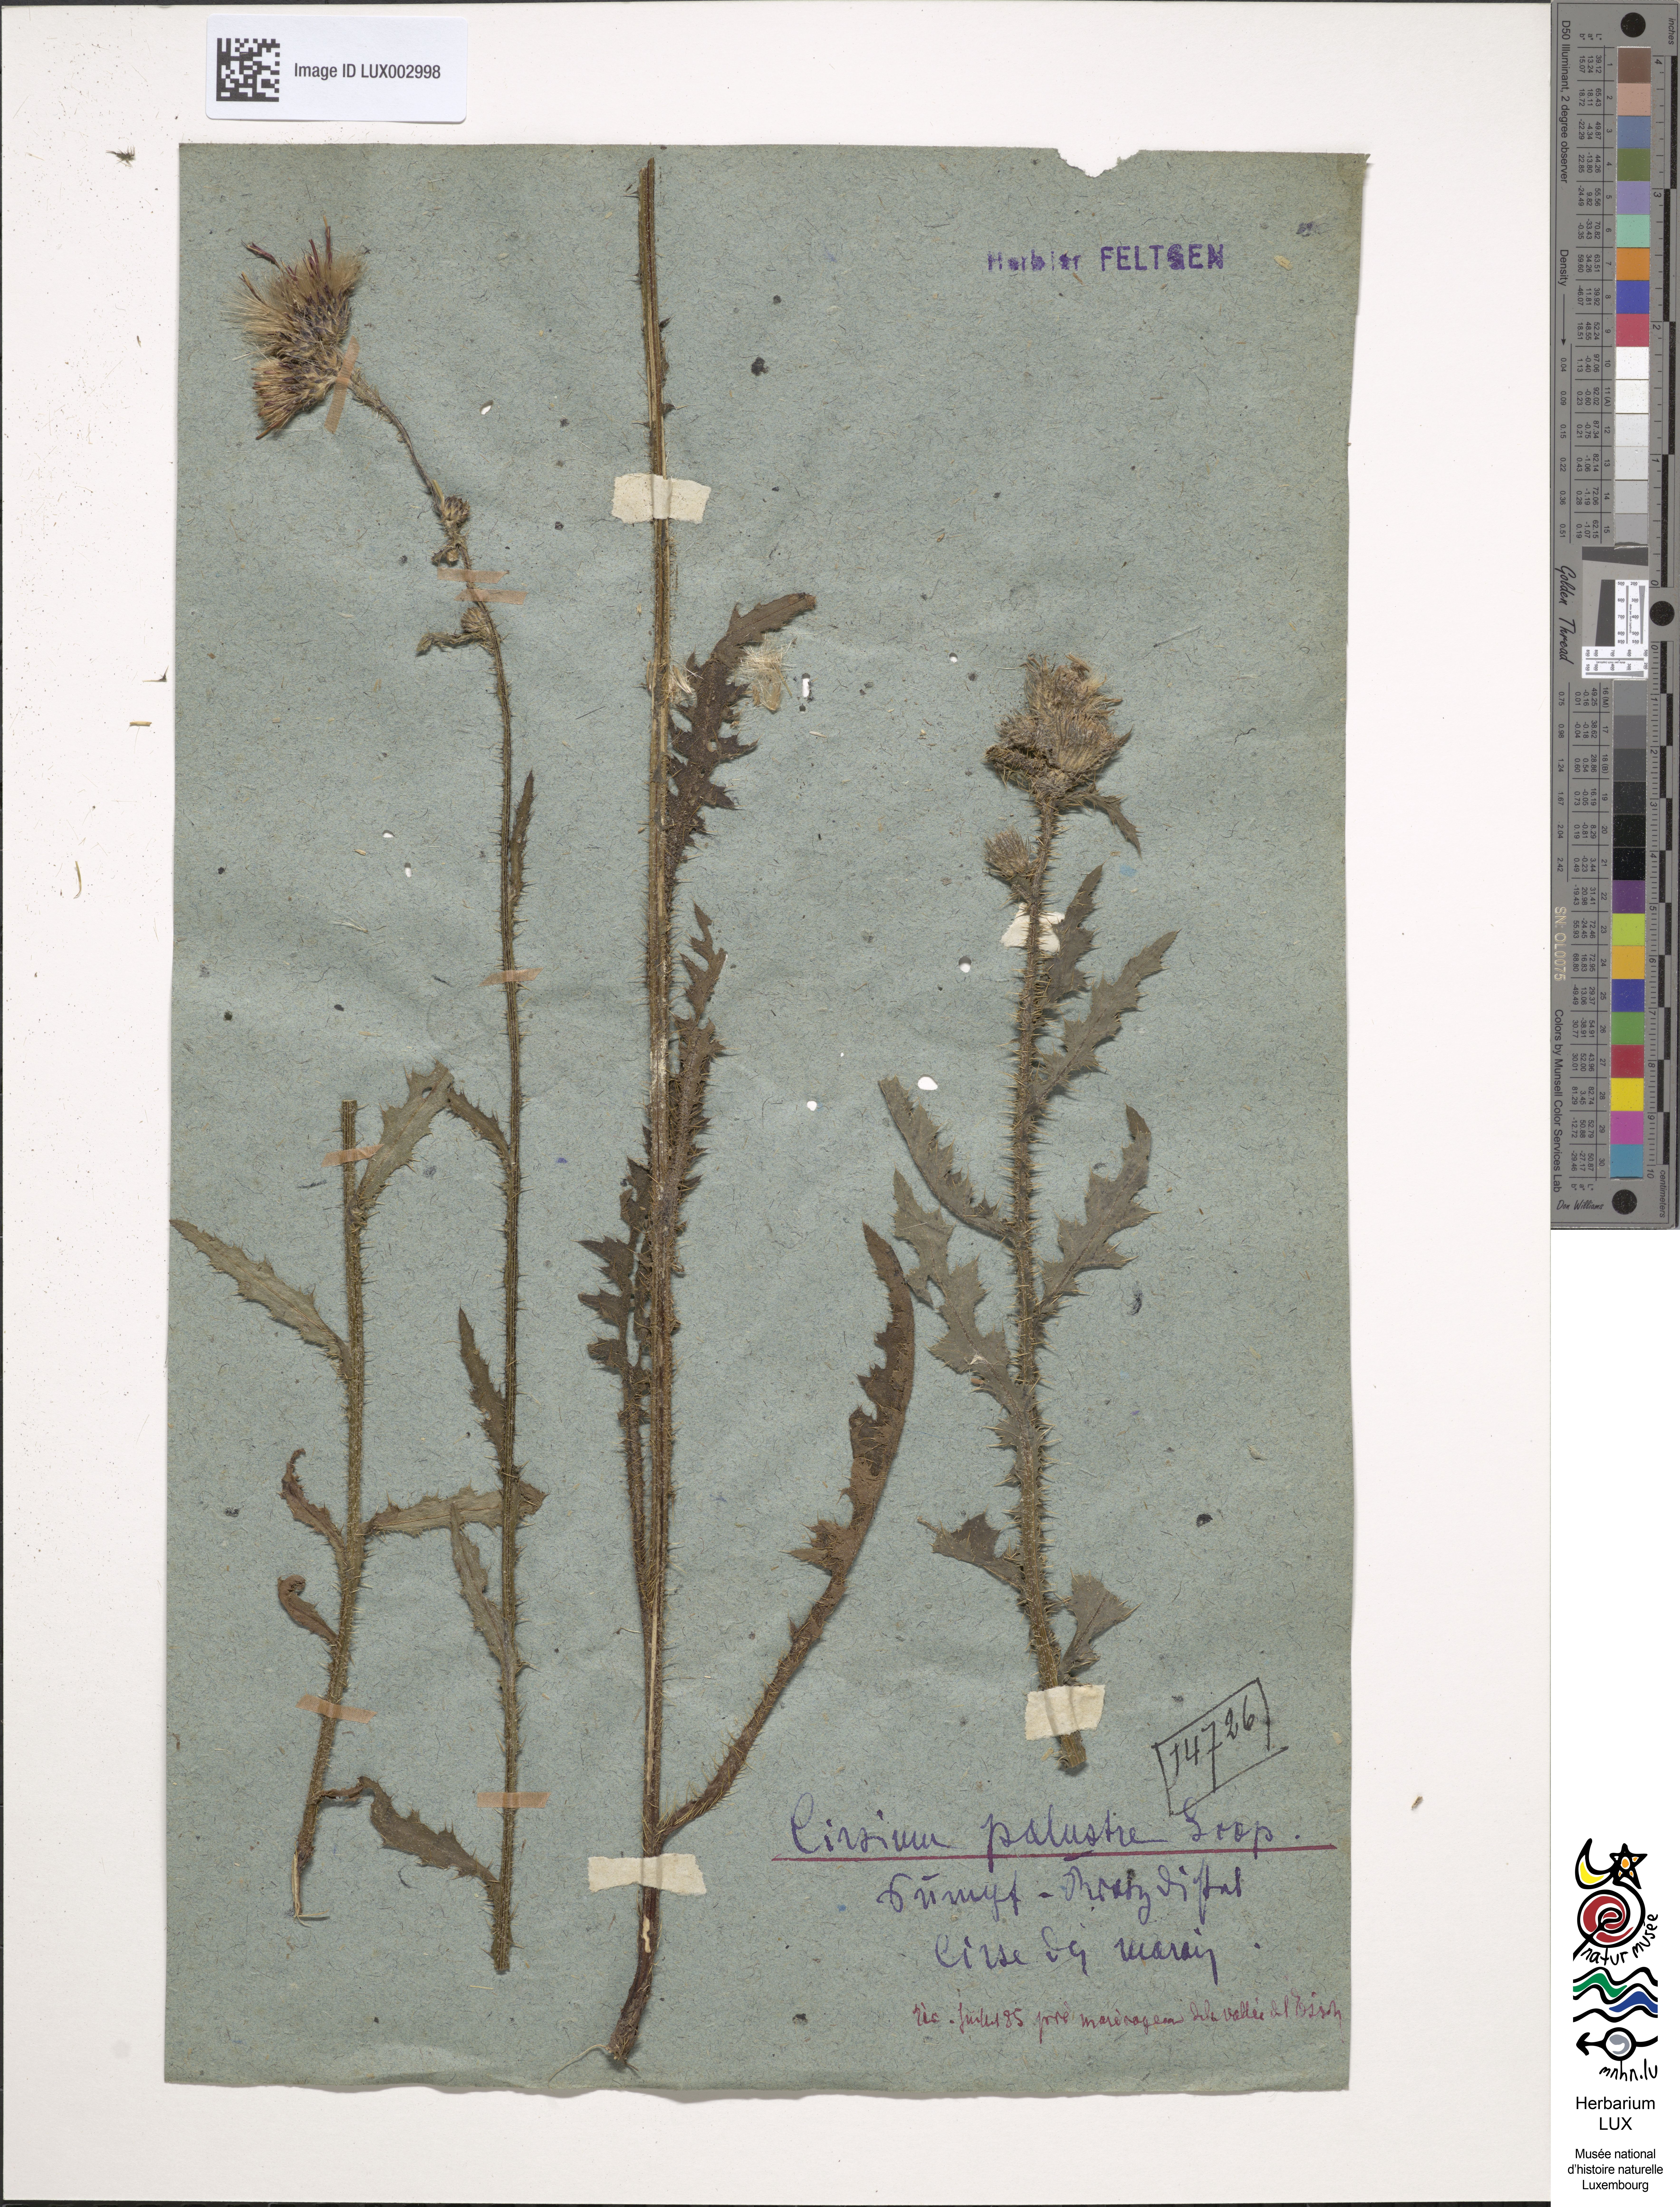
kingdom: Plantae
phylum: Tracheophyta
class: Magnoliopsida
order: Asterales
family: Asteraceae
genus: Cirsium
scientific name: Cirsium acaule
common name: Dwarf thistle
